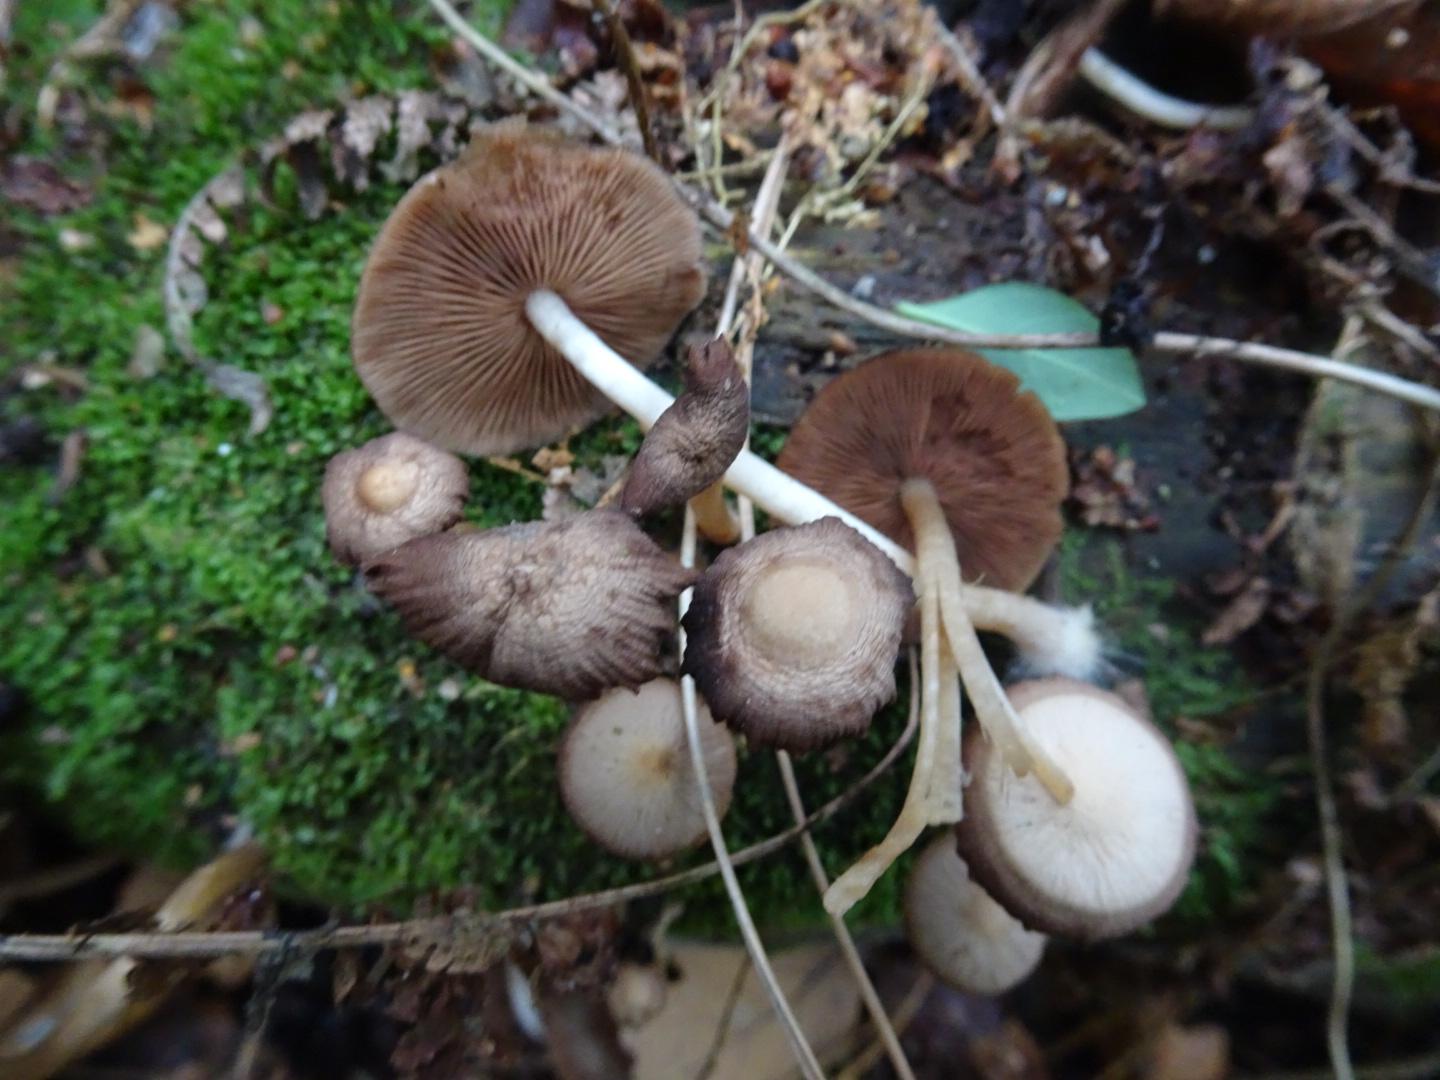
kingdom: Fungi
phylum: Basidiomycota
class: Agaricomycetes
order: Agaricales
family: Psathyrellaceae
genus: Psathyrella
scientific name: Psathyrella piluliformis
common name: lysstokket mørkhat
